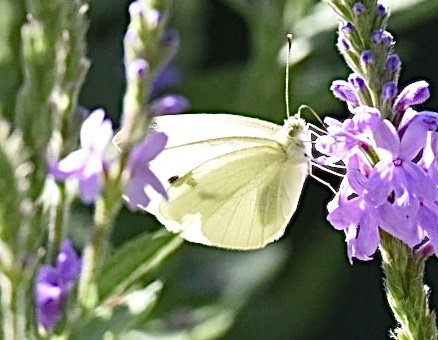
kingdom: Animalia
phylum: Arthropoda
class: Insecta
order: Lepidoptera
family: Pieridae
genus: Pieris
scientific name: Pieris rapae
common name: Cabbage White
